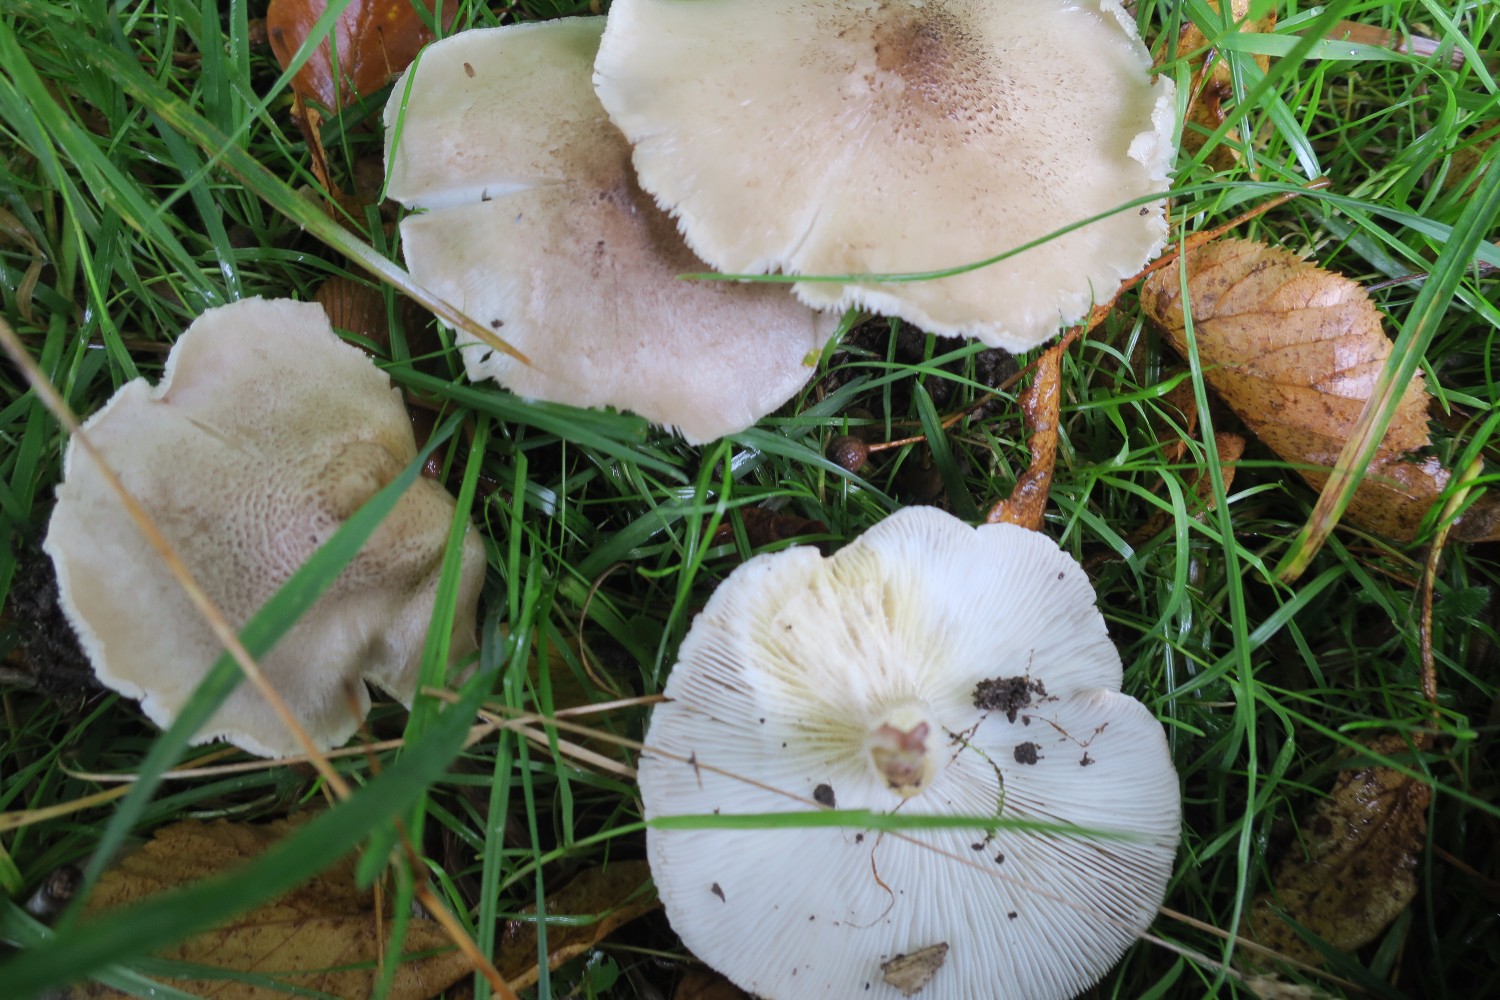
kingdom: Fungi
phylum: Basidiomycota
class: Agaricomycetes
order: Agaricales
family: Tricholomataceae
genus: Tricholoma
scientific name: Tricholoma argyraceum
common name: spids ridderhat
